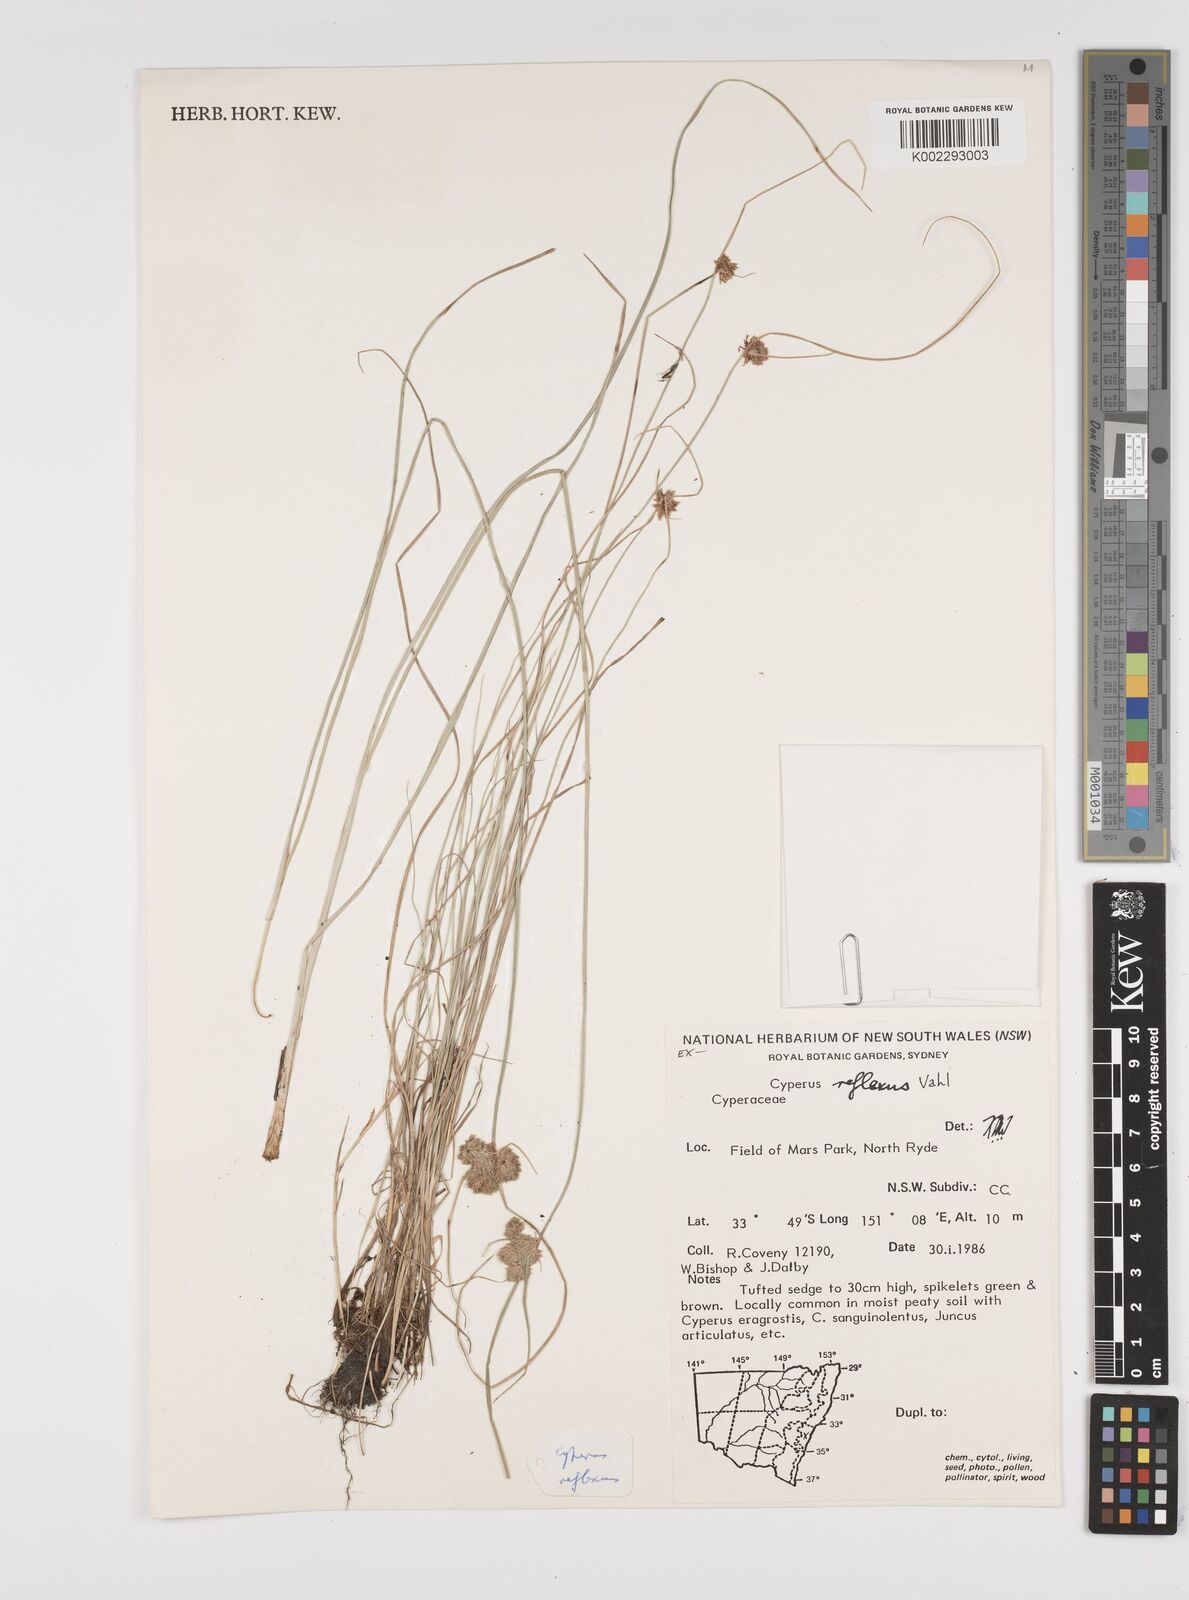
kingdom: Plantae
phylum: Tracheophyta
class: Liliopsida
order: Poales
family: Cyperaceae
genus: Cyperus
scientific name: Cyperus reflexus
